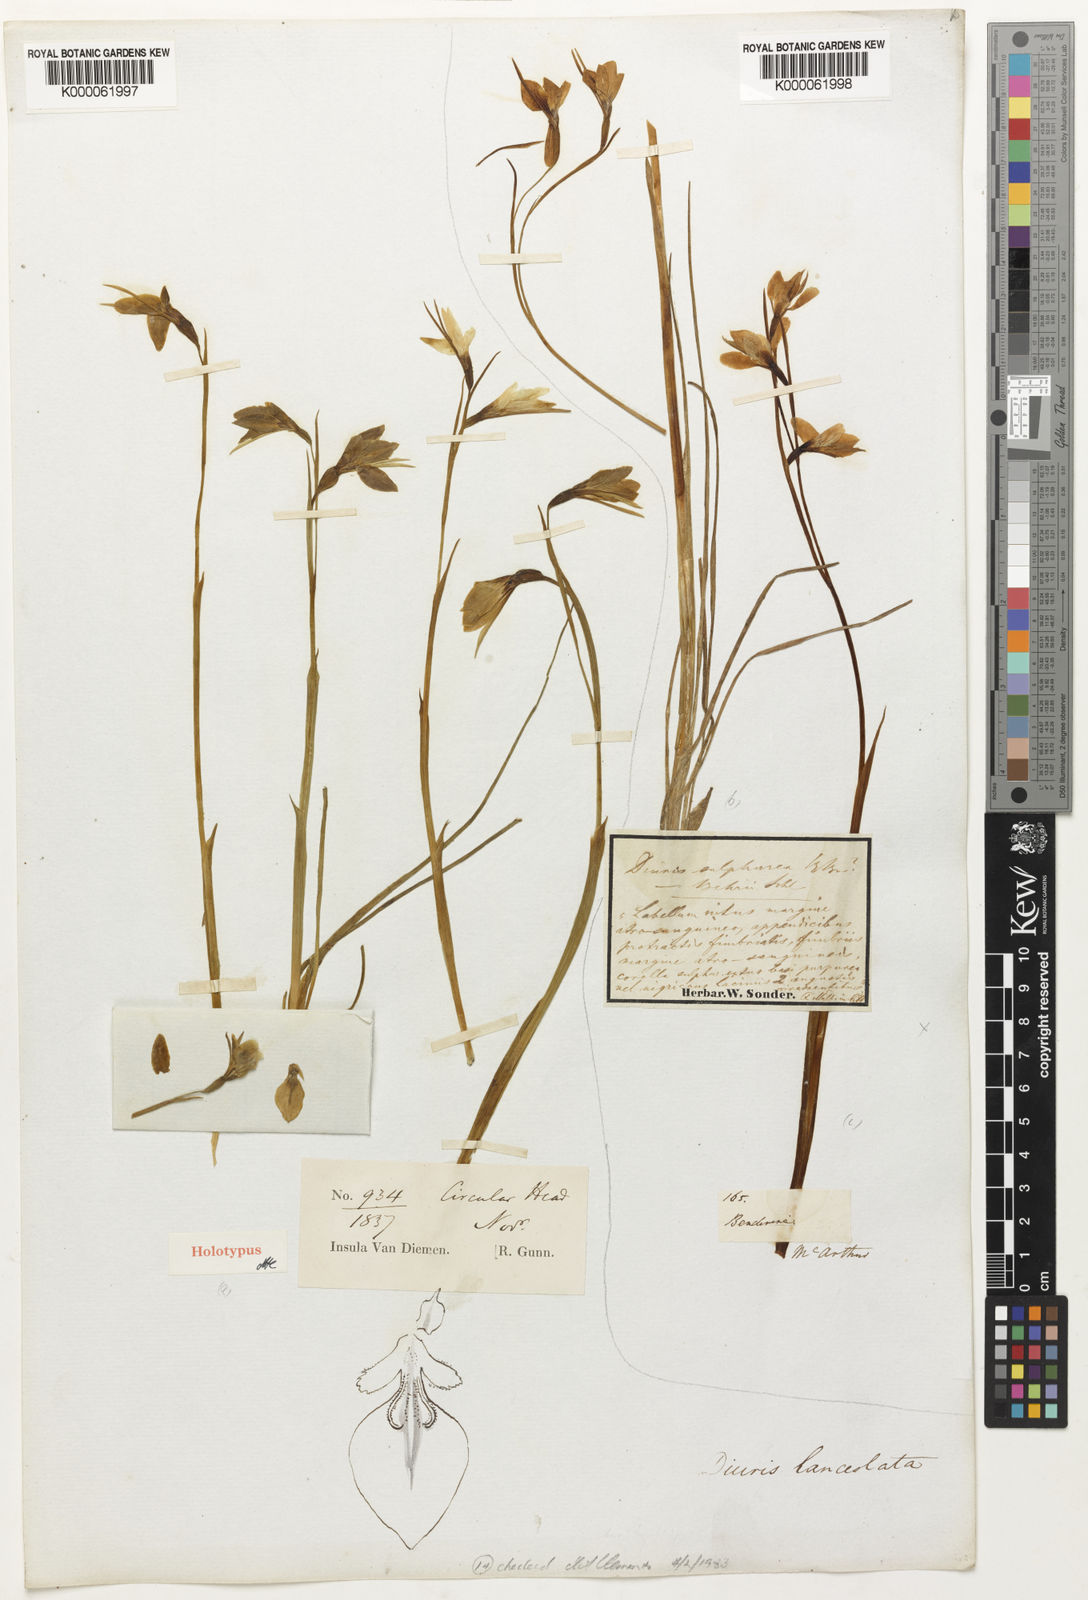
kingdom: Plantae
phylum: Tracheophyta
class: Liliopsida
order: Asparagales
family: Orchidaceae
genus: Diuris
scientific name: Diuris lanceolata
